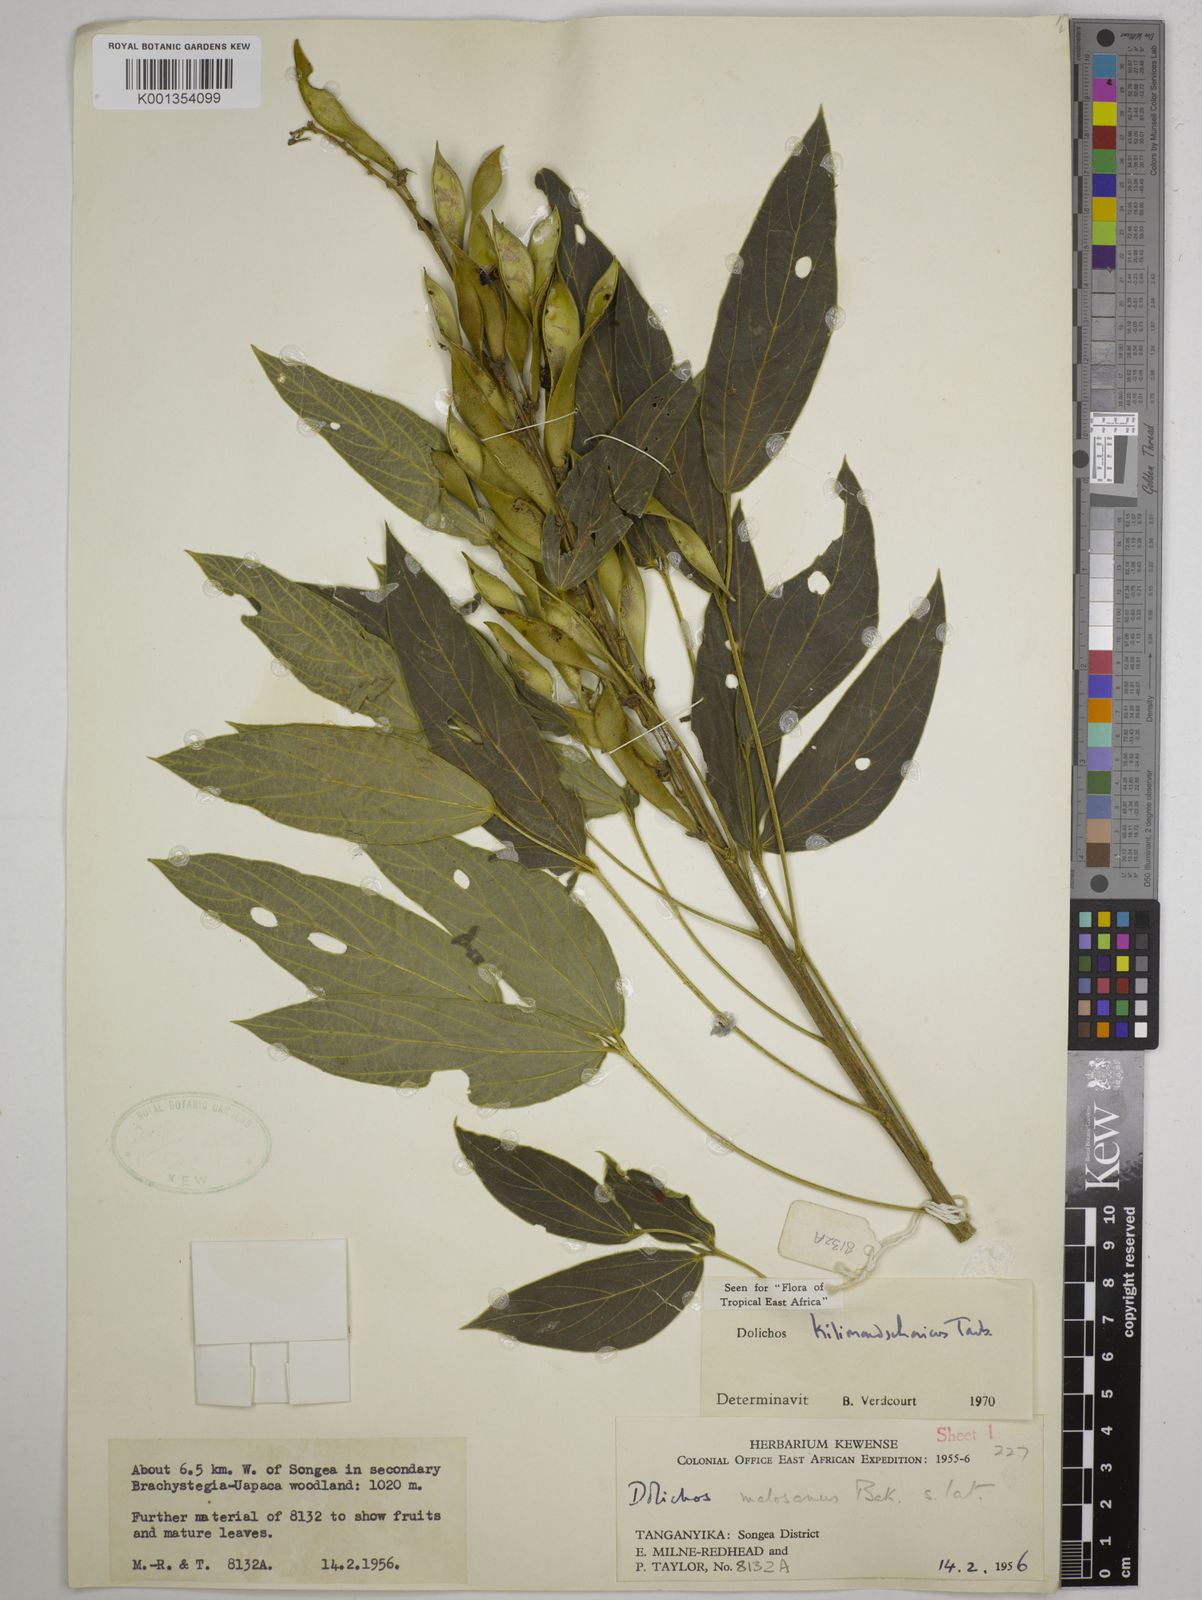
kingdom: Plantae
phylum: Tracheophyta
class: Magnoliopsida
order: Fabales
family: Fabaceae
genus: Dolichos
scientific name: Dolichos kilimandscharicus
